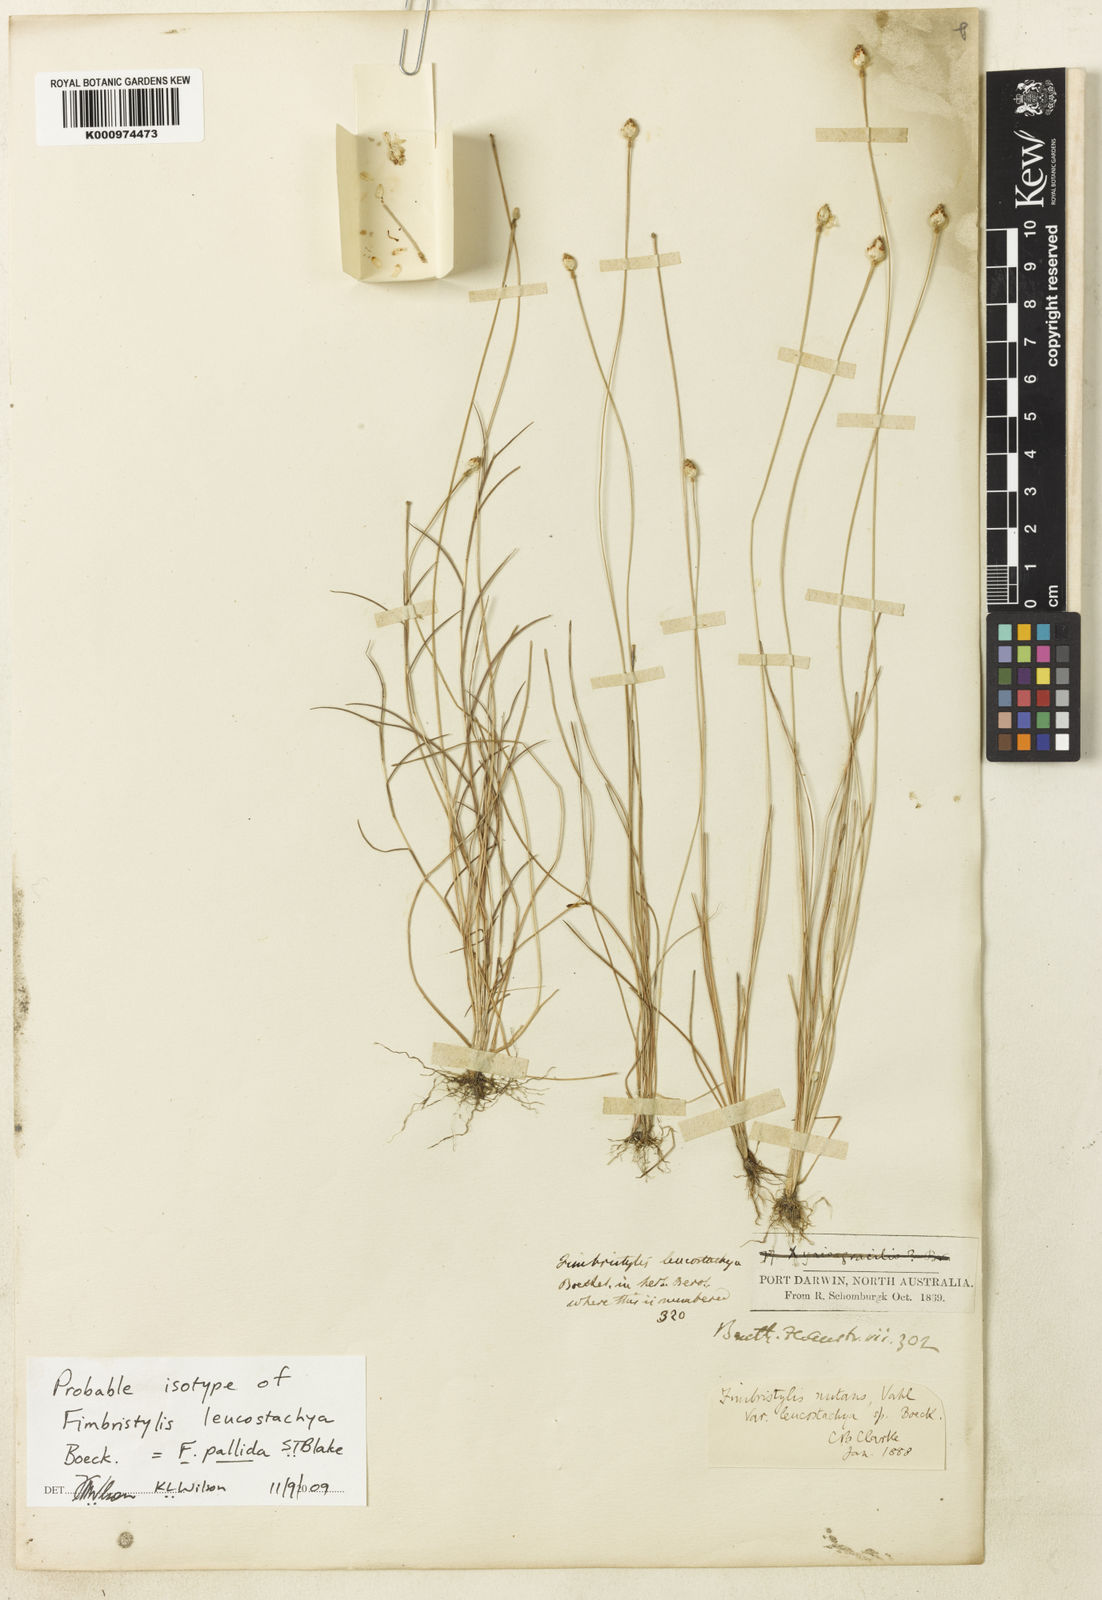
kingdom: Plantae
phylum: Tracheophyta
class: Liliopsida
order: Poales
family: Cyperaceae
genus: Fimbristylis
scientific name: Fimbristylis pallida
